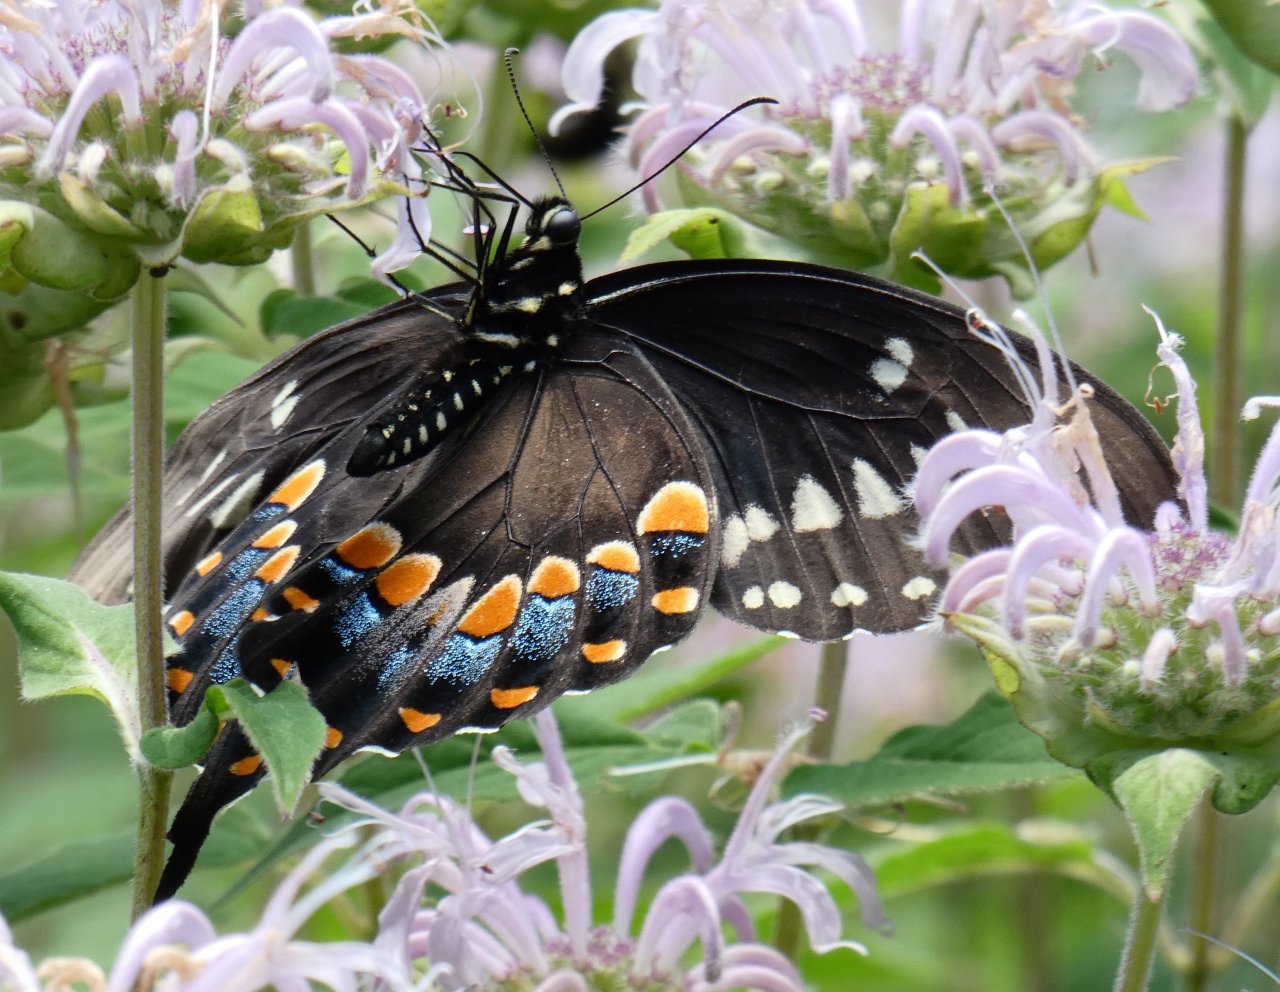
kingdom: Animalia
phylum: Arthropoda
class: Insecta
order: Lepidoptera
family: Papilionidae
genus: Pterourus
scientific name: Pterourus troilus
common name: Spicebush Swallowtail
